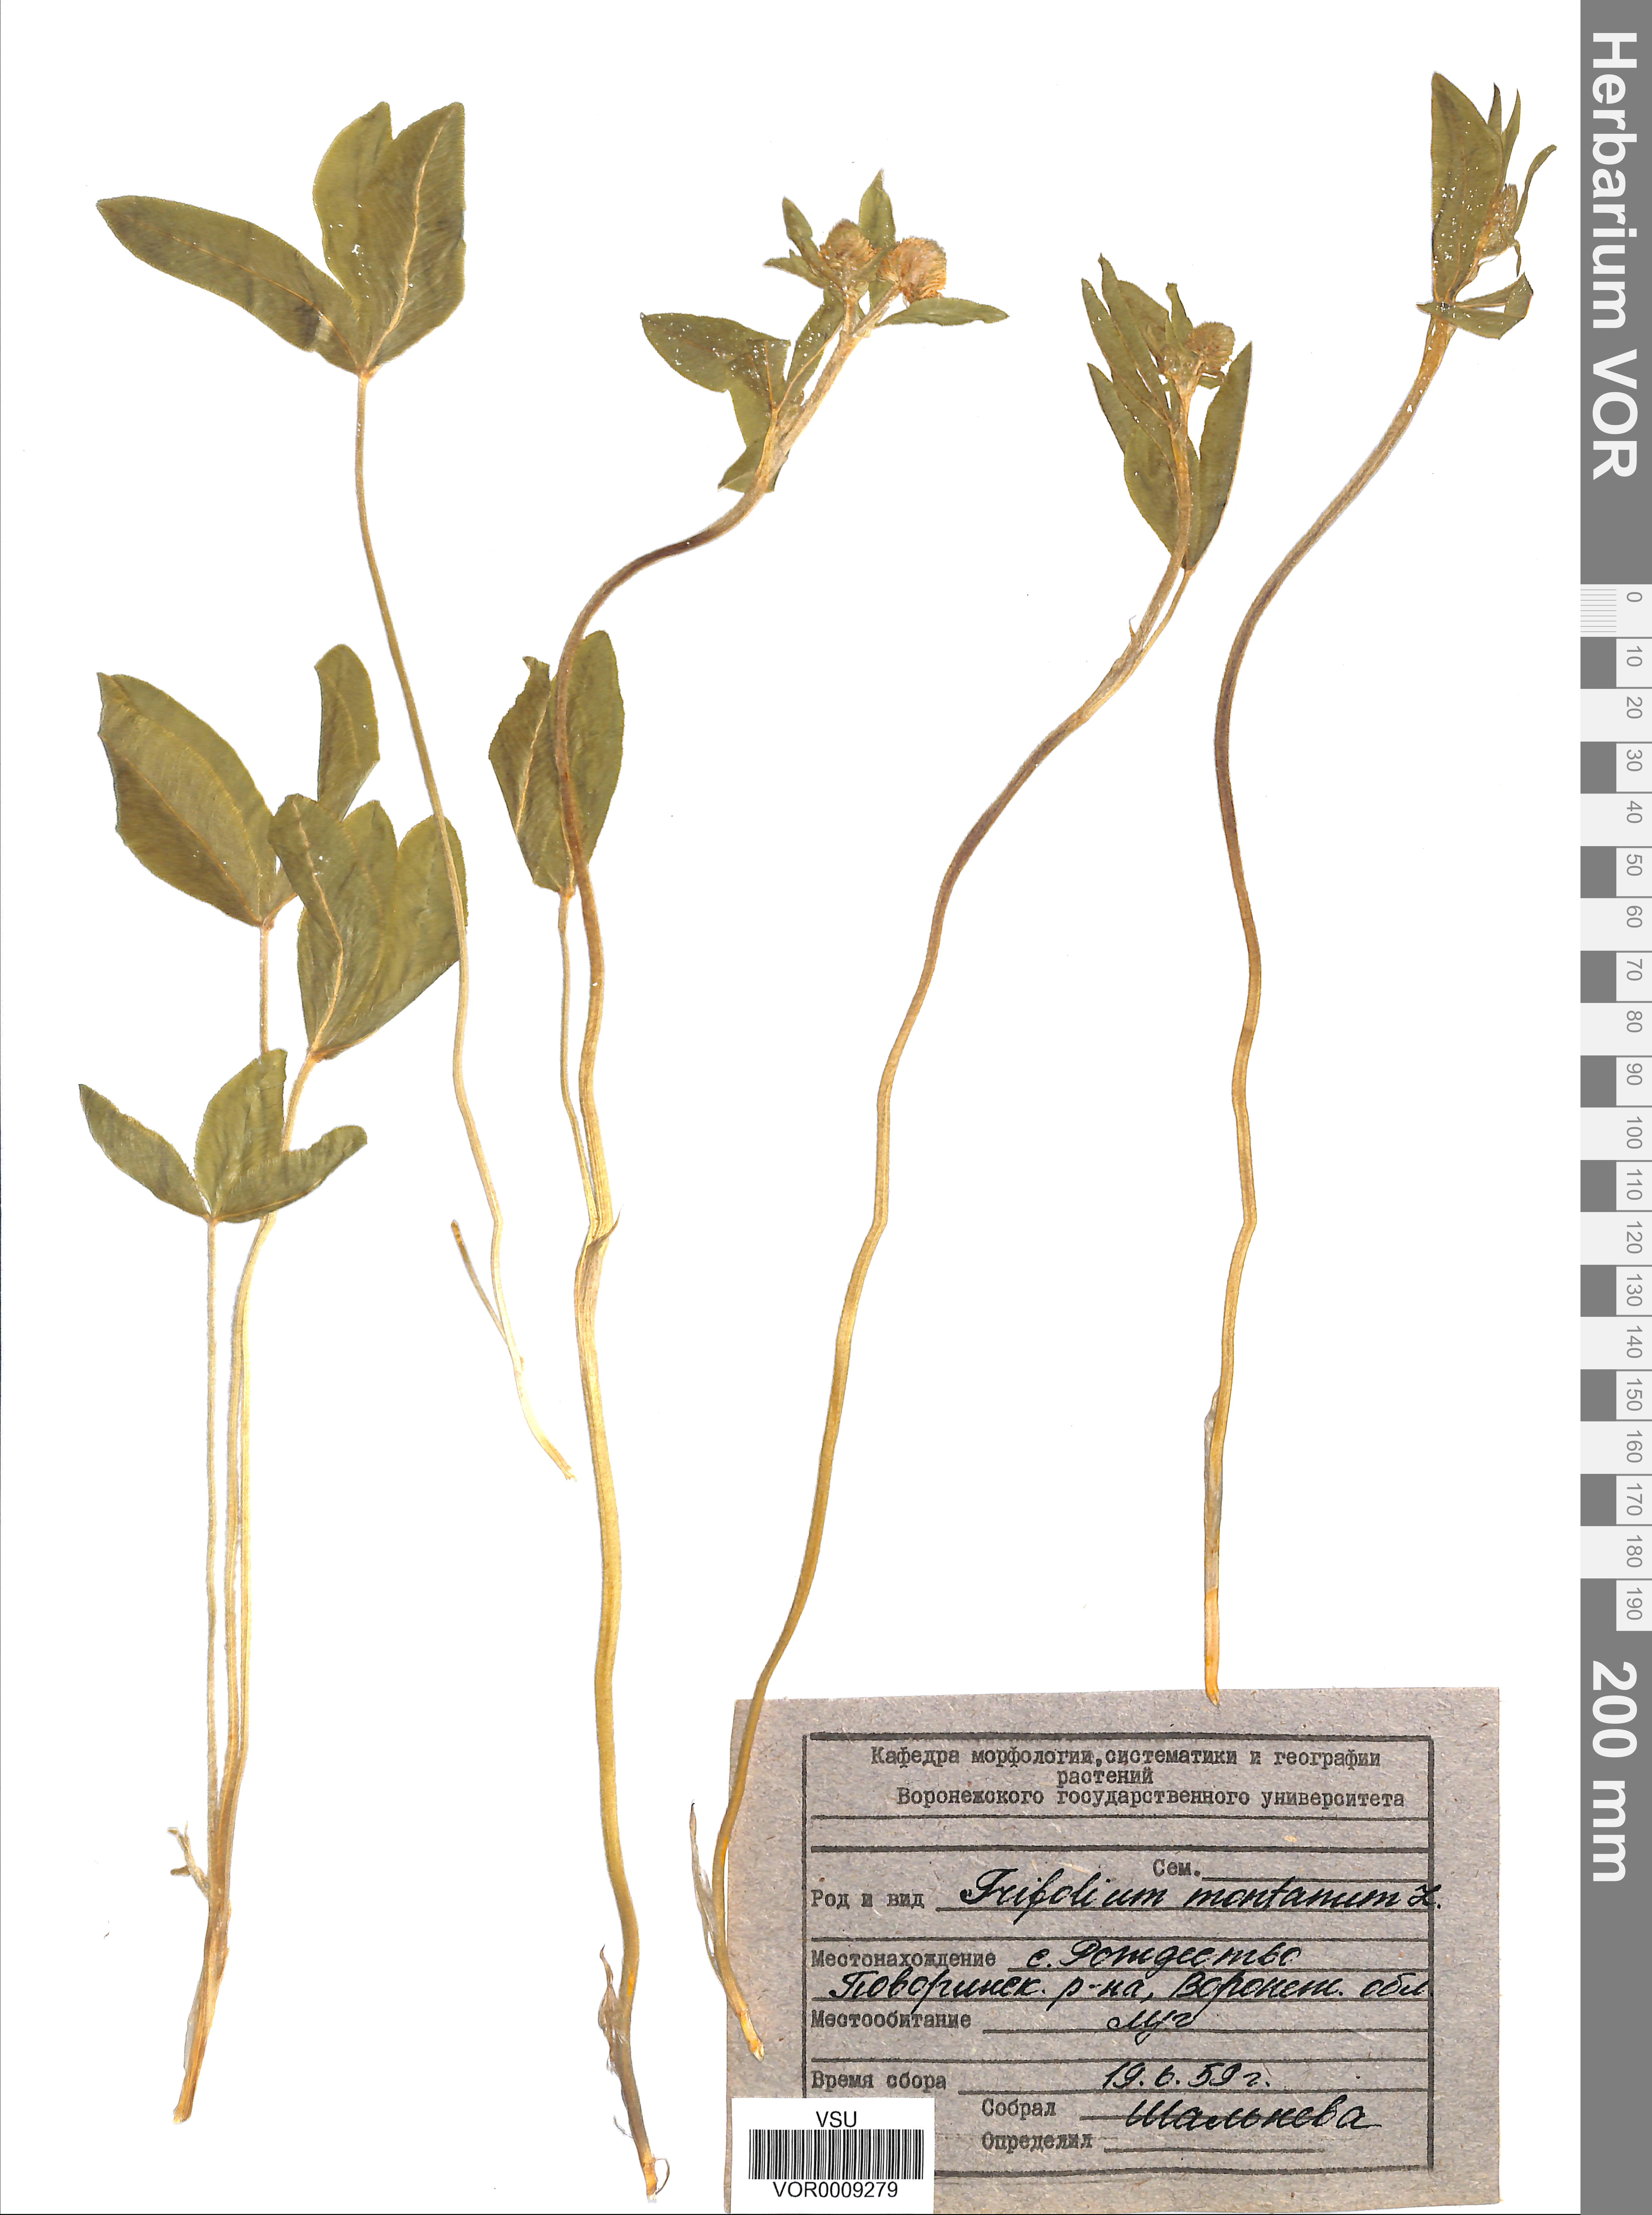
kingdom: Plantae
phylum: Tracheophyta
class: Magnoliopsida
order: Fabales
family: Fabaceae
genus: Trifolium
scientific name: Trifolium montanum
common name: Mountain clover
